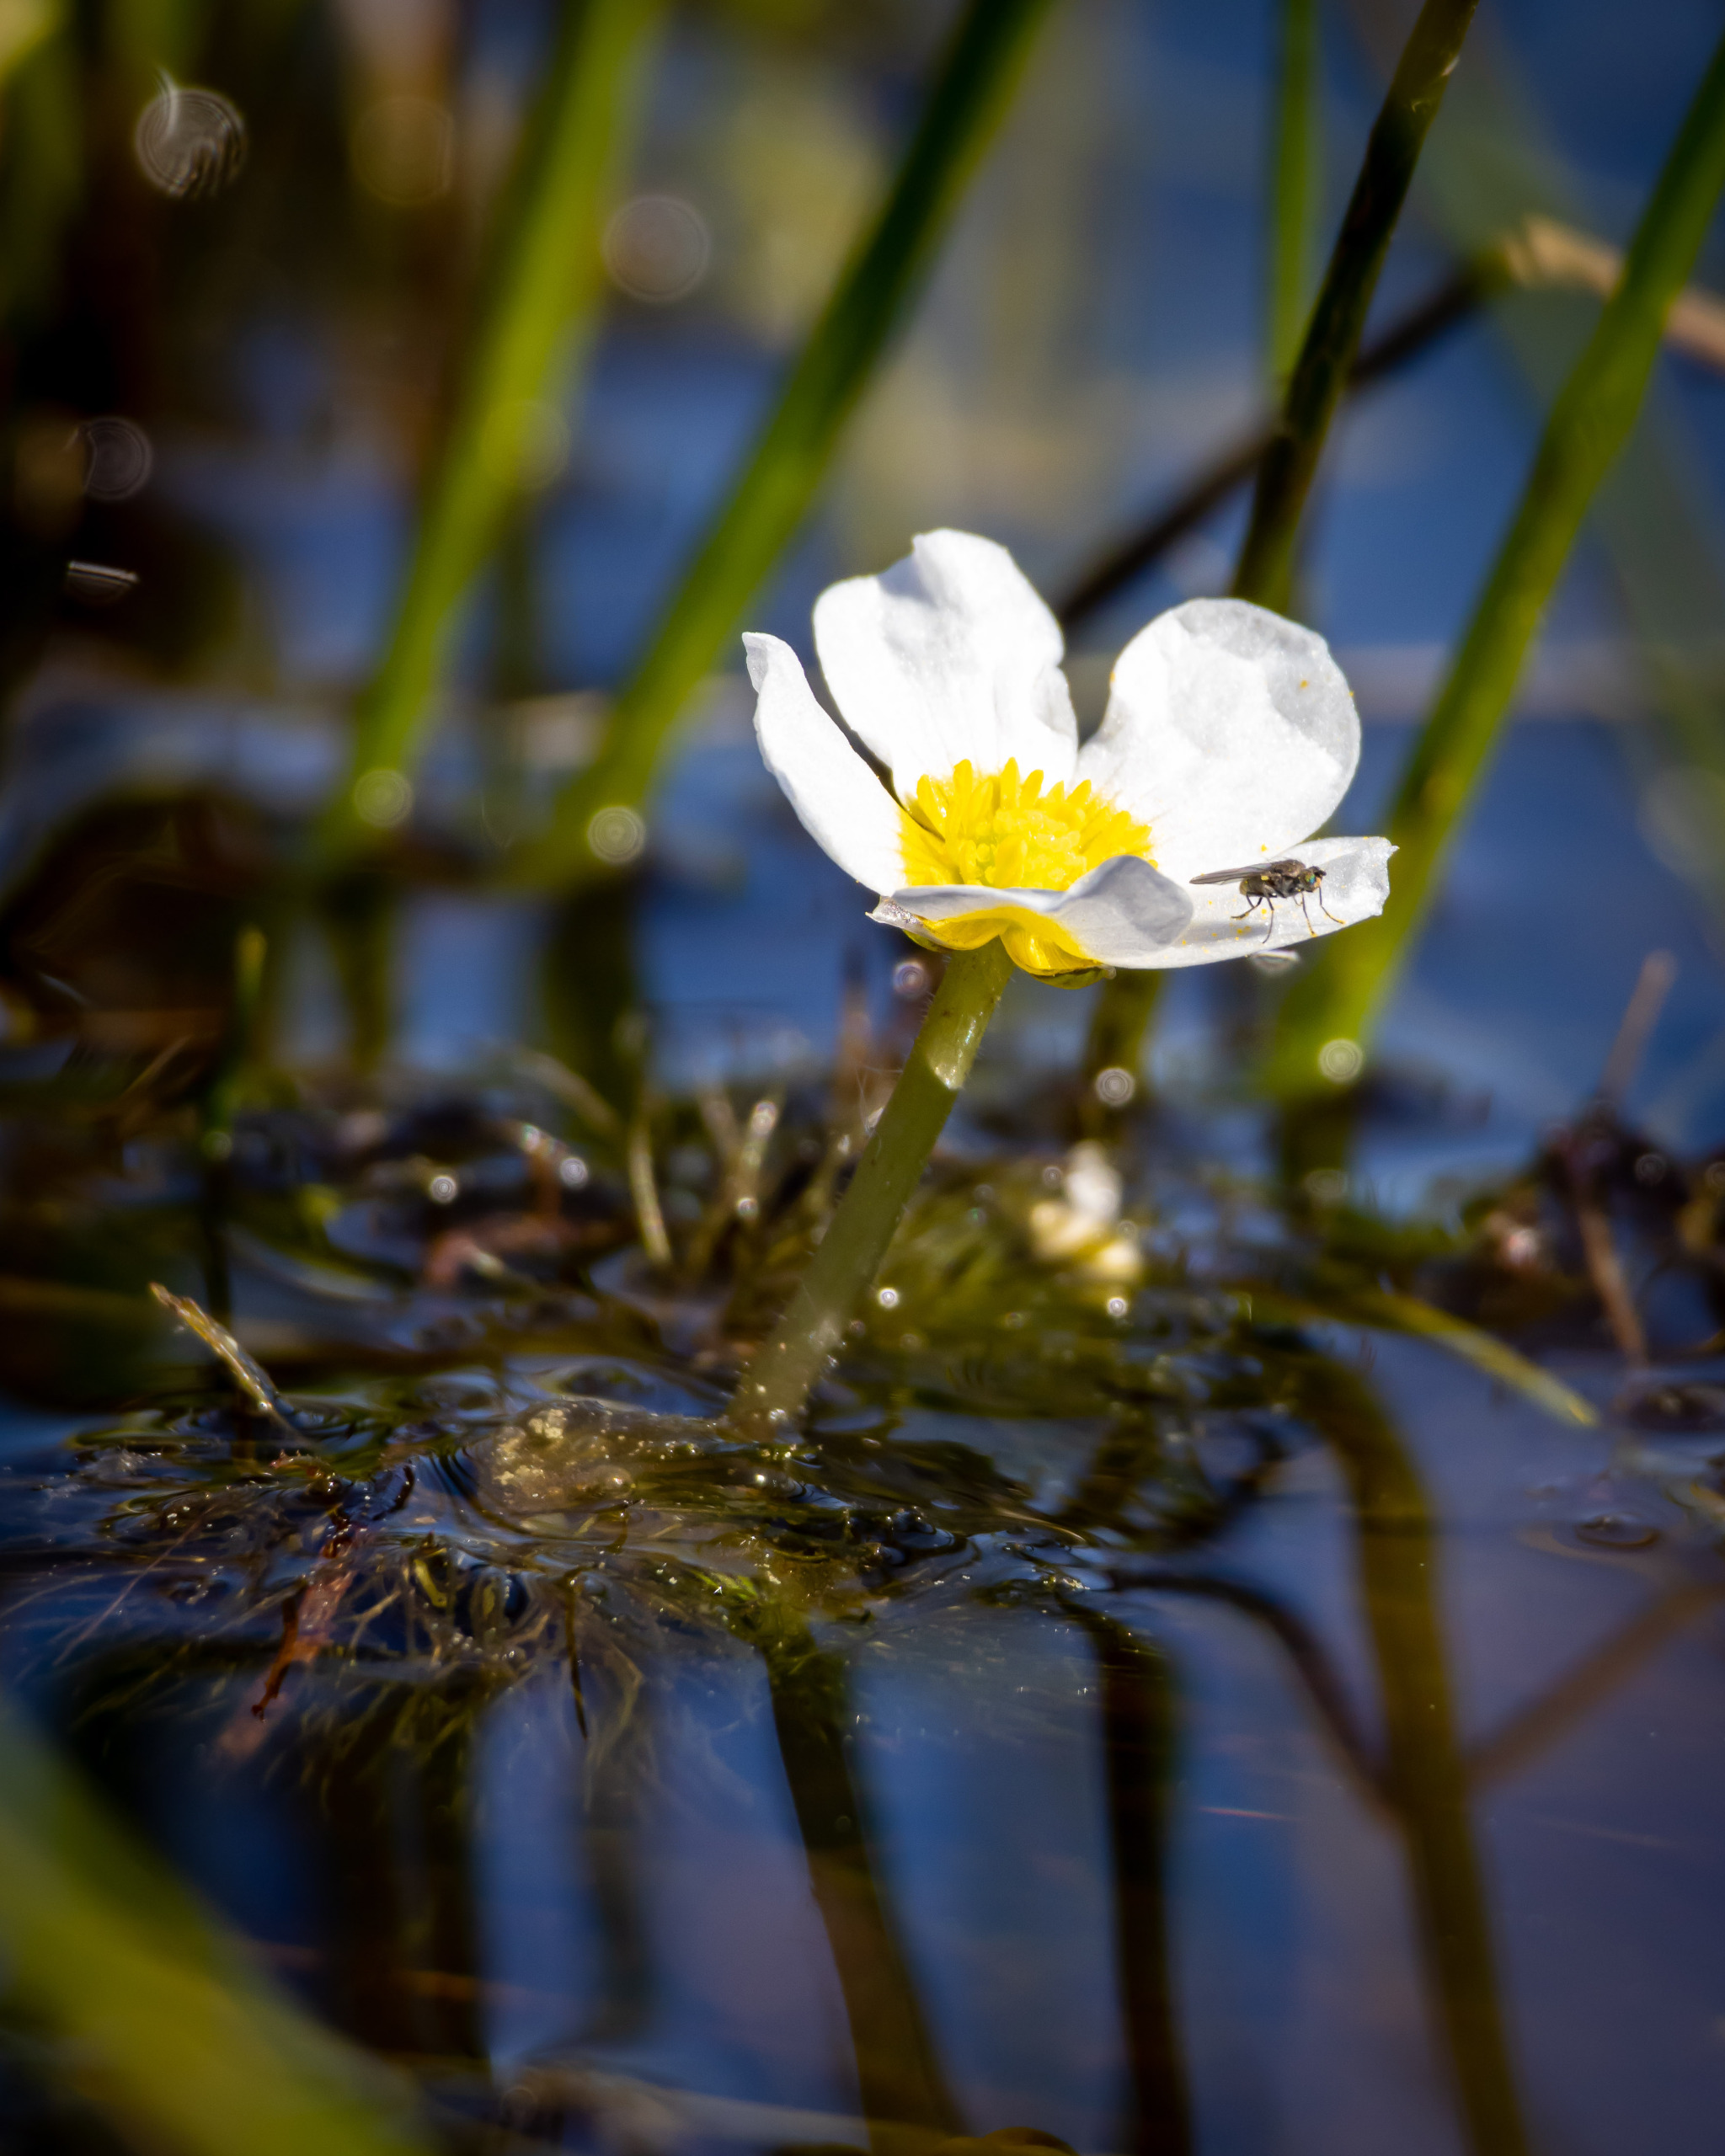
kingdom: Plantae
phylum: Tracheophyta
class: Magnoliopsida
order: Ranunculales
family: Ranunculaceae
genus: Ranunculus
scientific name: Ranunculus
